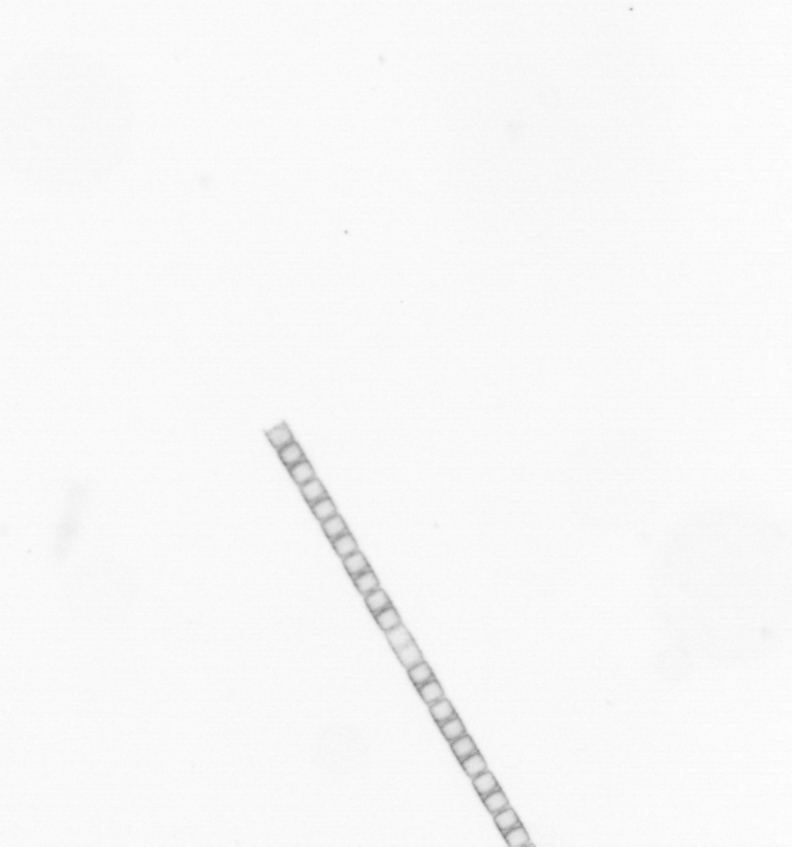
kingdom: Chromista
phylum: Ochrophyta
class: Bacillariophyceae
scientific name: Bacillariophyceae
